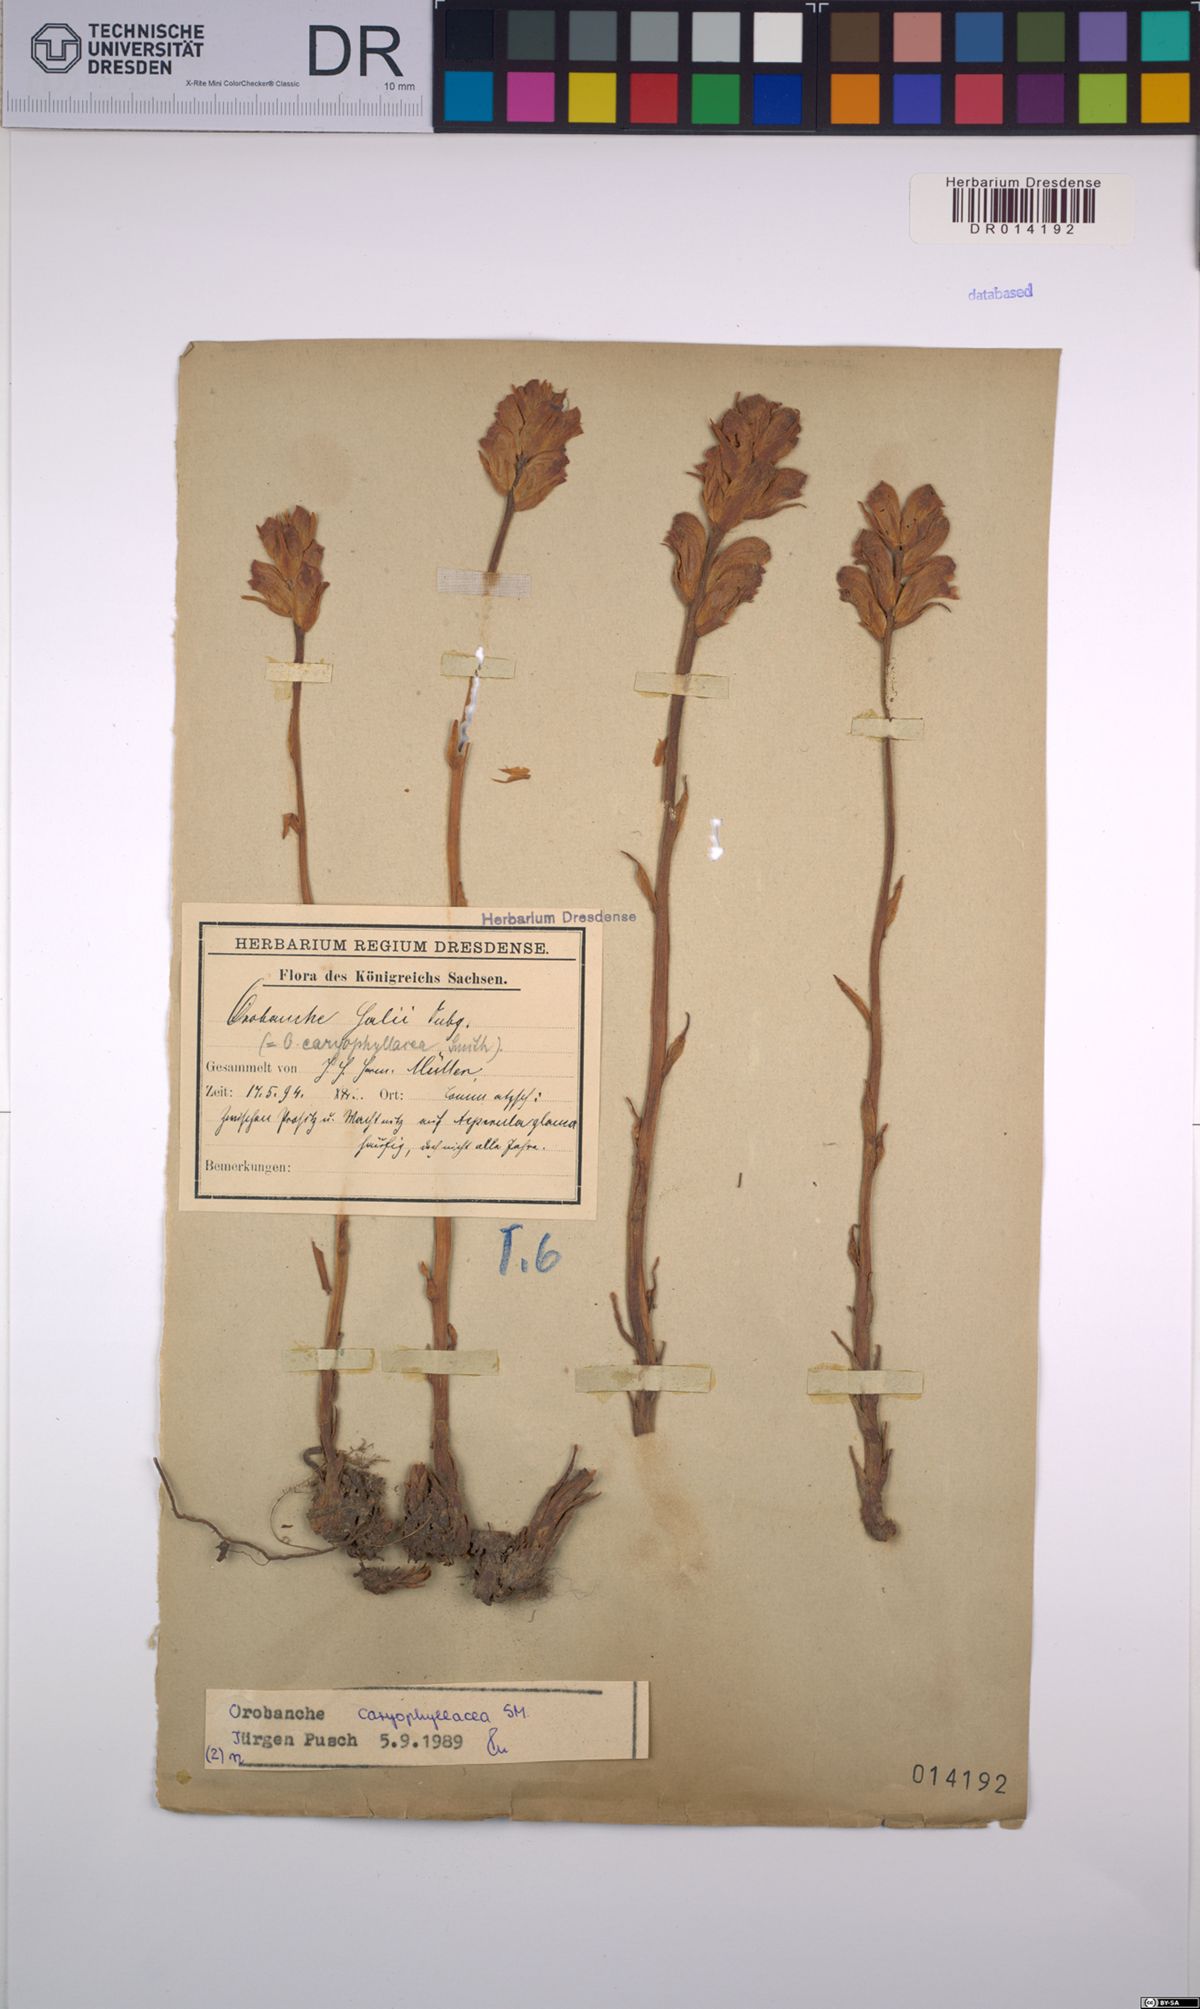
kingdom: Plantae
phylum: Tracheophyta
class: Magnoliopsida
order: Lamiales
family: Orobanchaceae
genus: Orobanche
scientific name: Orobanche caryophyllacea
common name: Bedstraw broomrape
